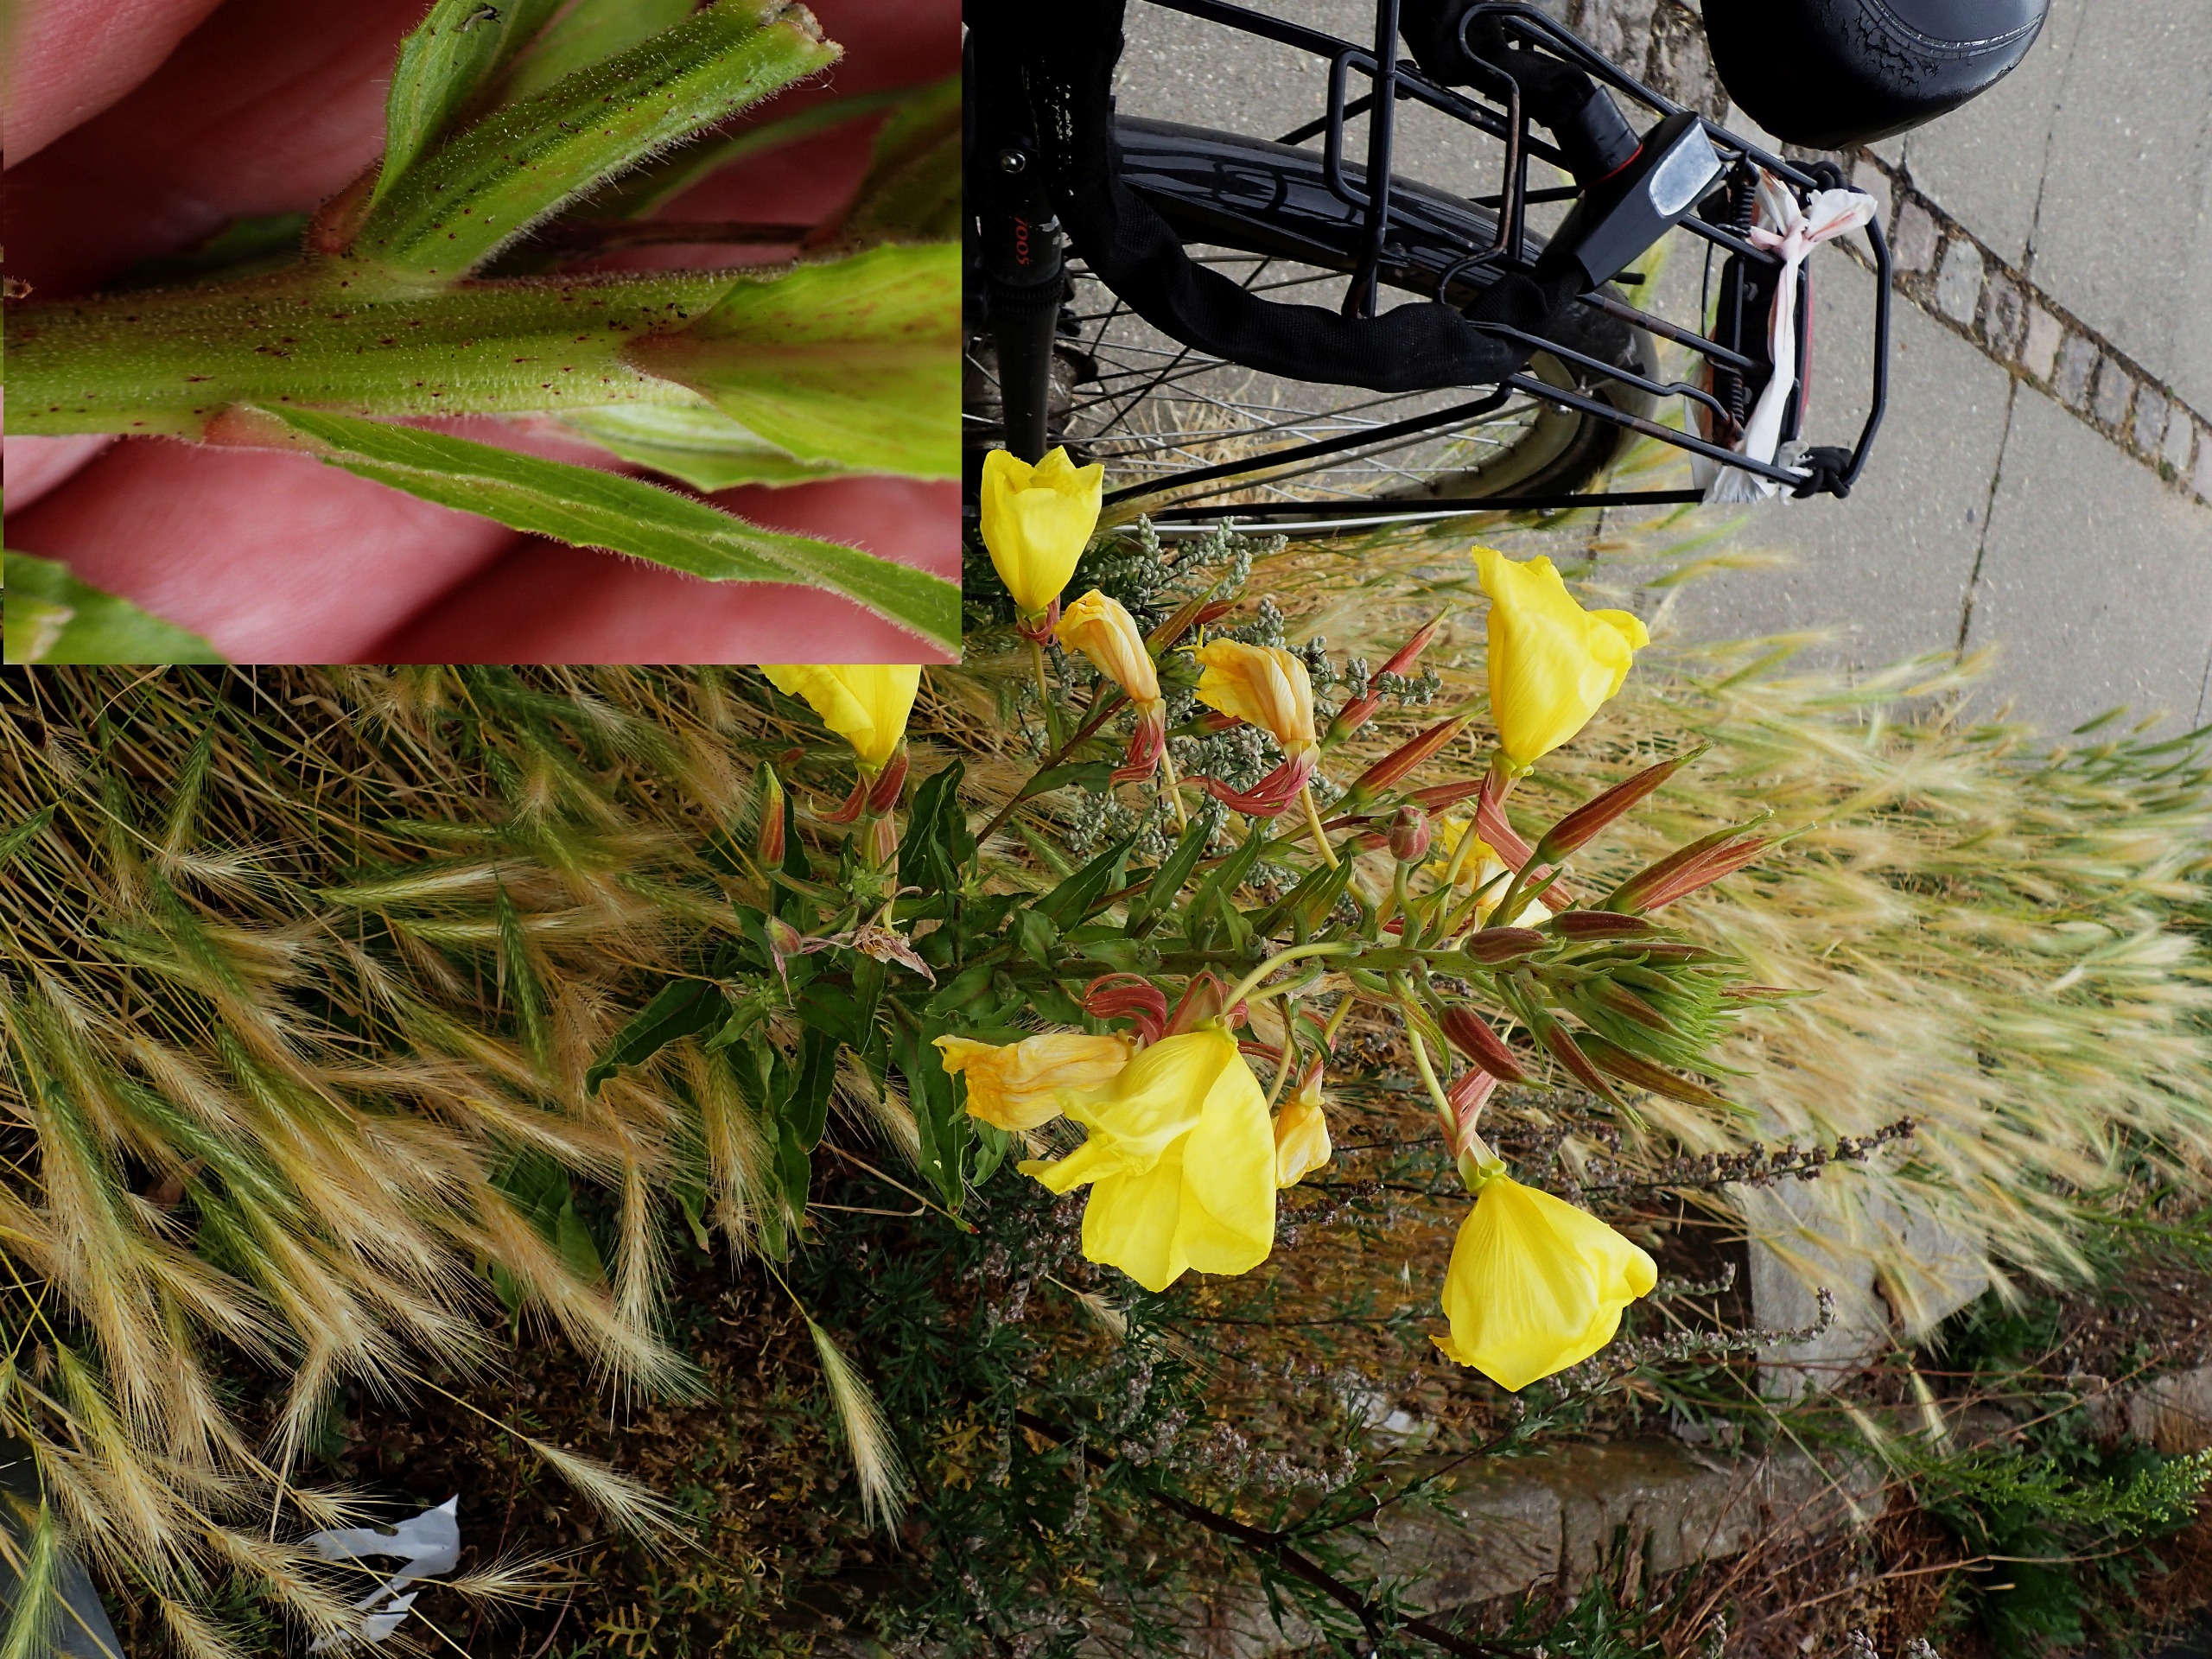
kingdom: Plantae
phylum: Tracheophyta
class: Magnoliopsida
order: Myrtales
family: Onagraceae
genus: Oenothera
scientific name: Oenothera glazioviana
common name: Kæmpe-natlys
